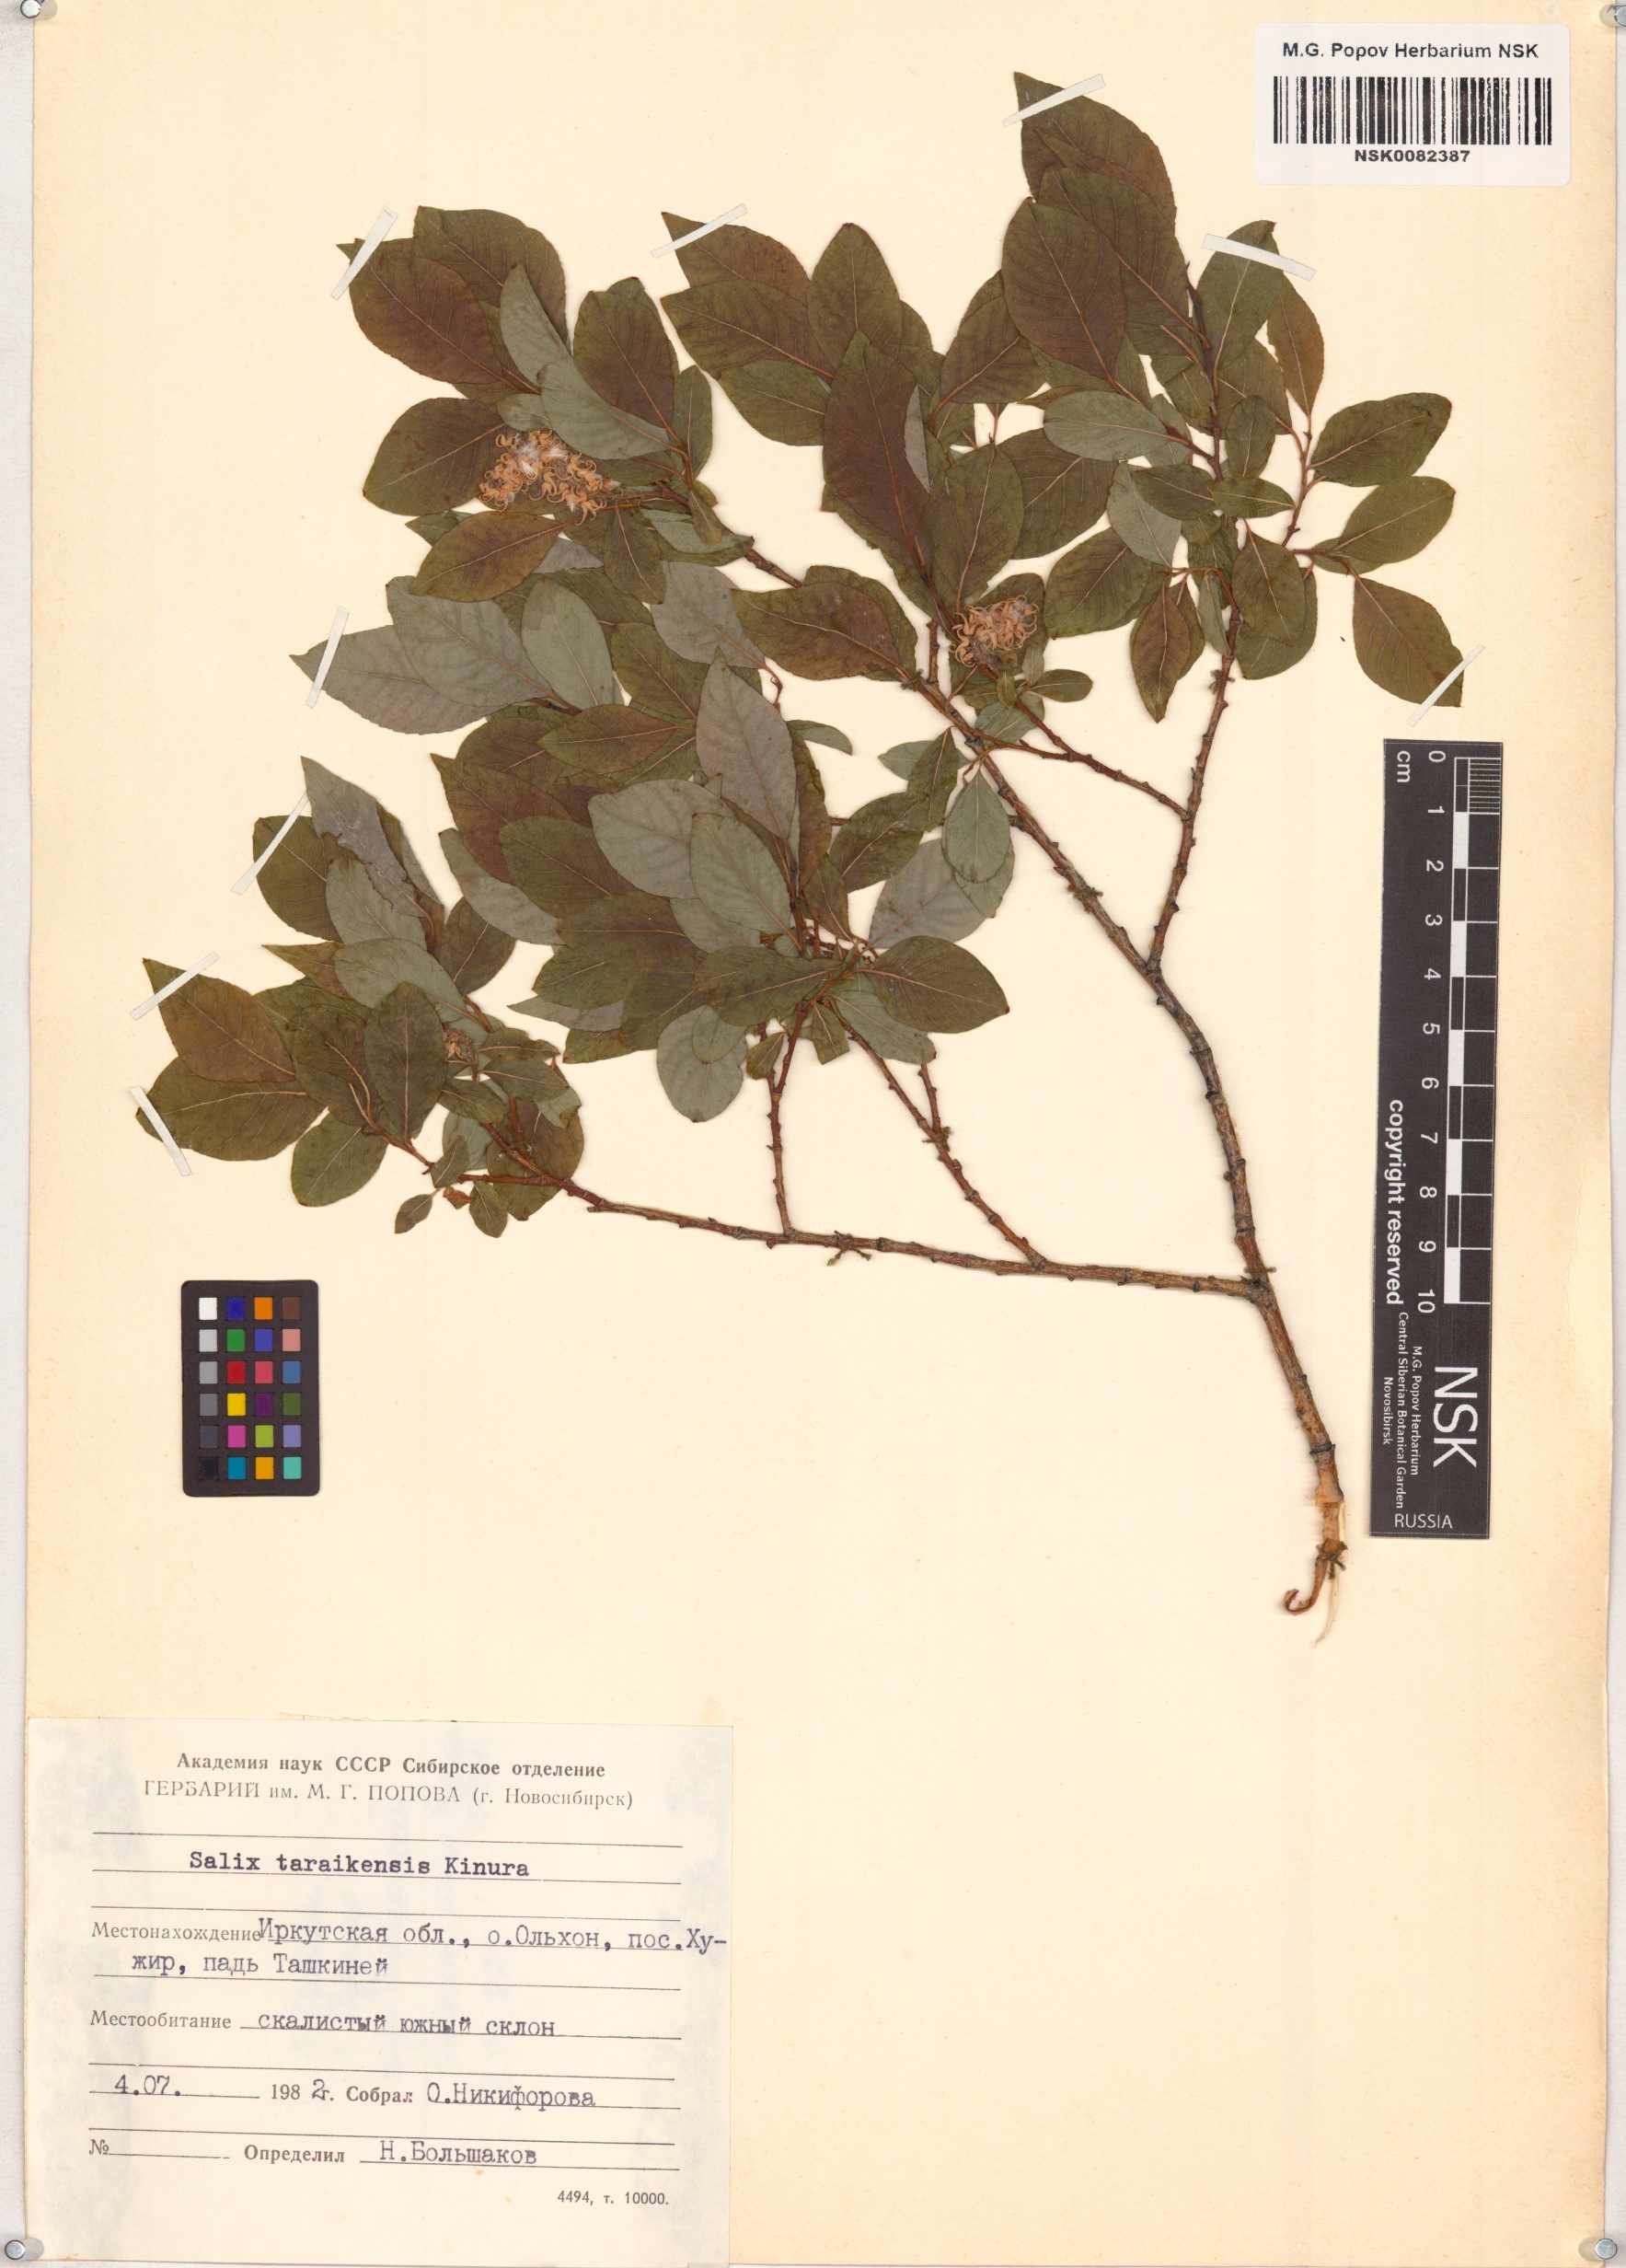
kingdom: Plantae
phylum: Tracheophyta
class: Magnoliopsida
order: Malpighiales
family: Salicaceae
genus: Salix
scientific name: Salix taraikensis
